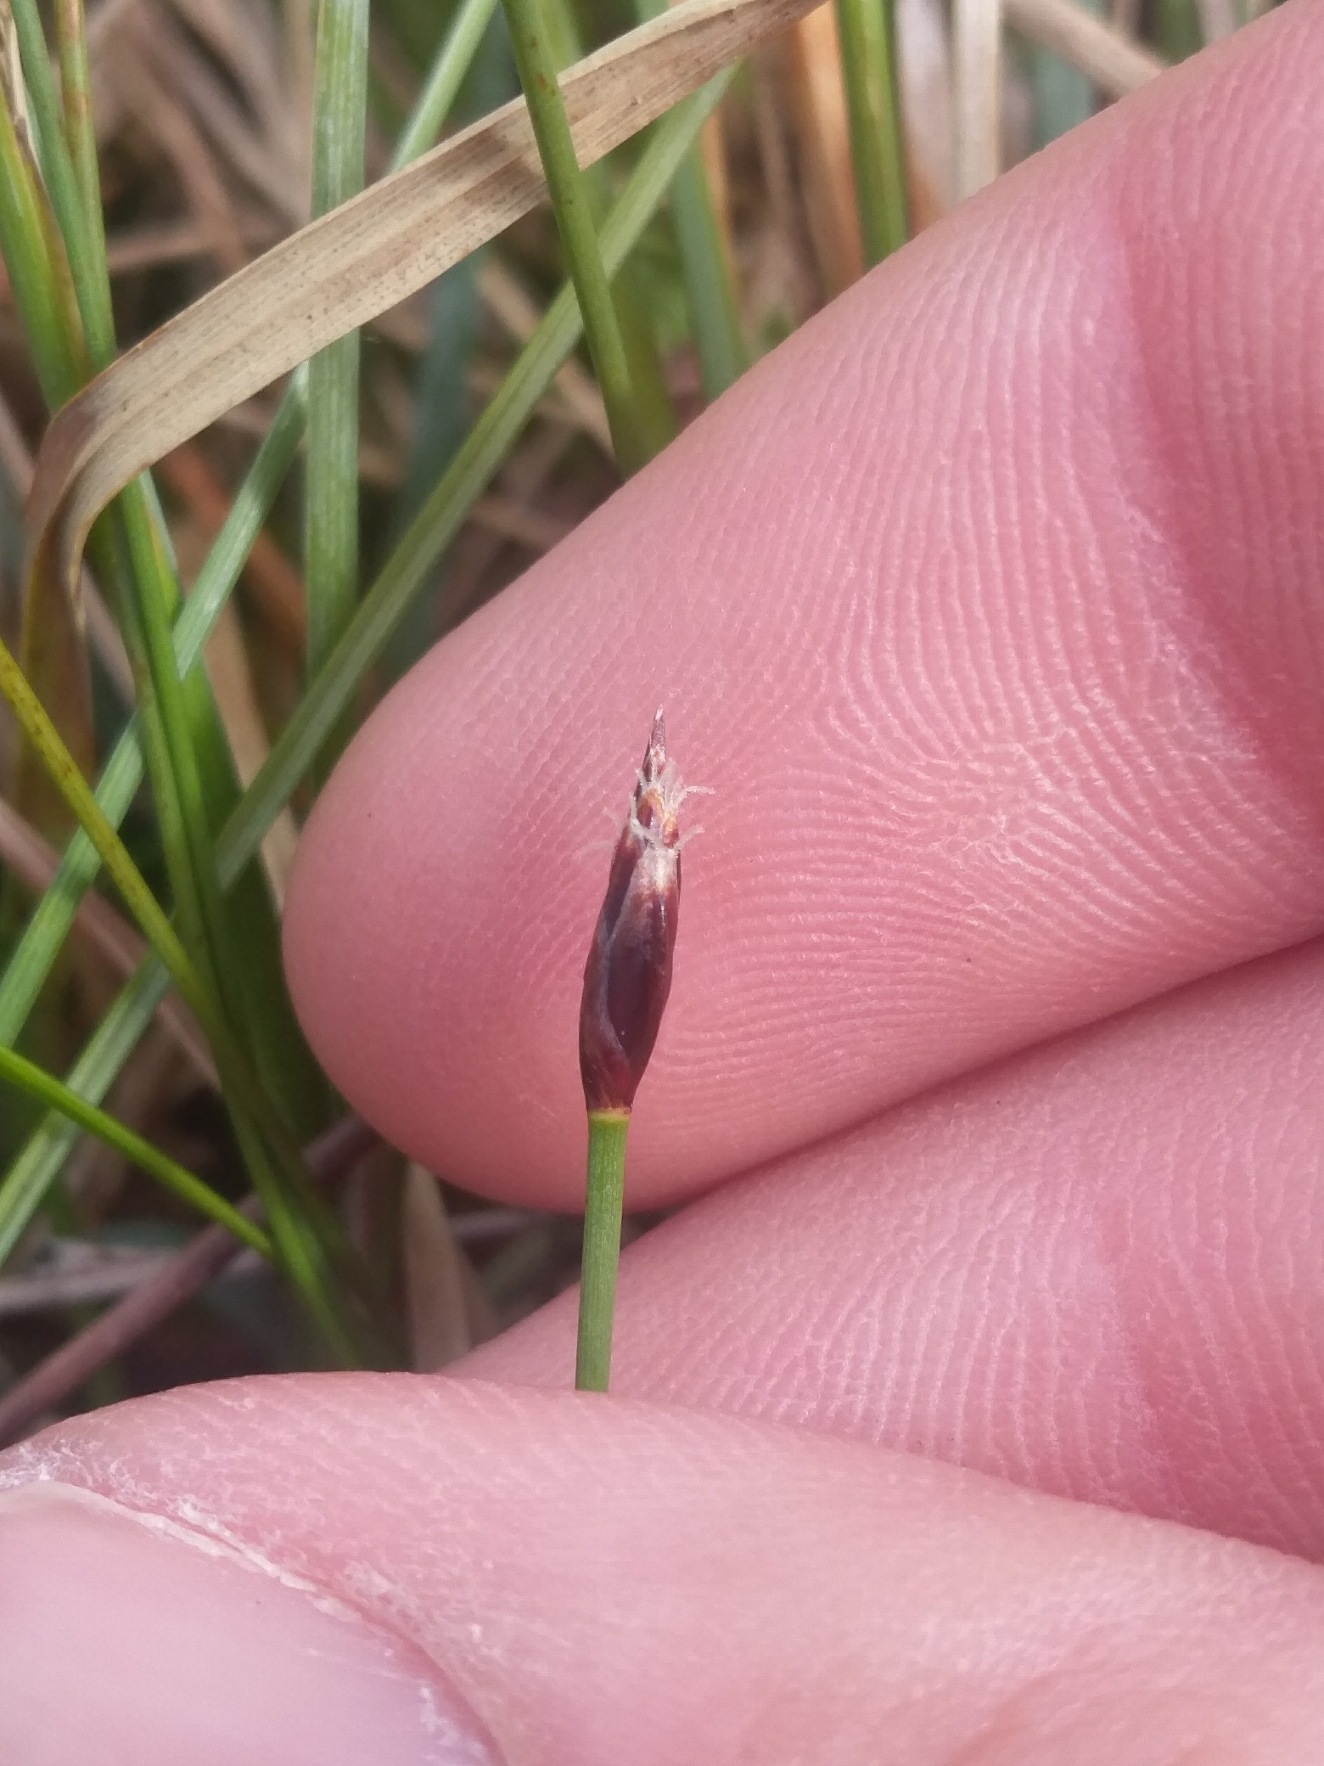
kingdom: Plantae
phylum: Tracheophyta
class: Liliopsida
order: Poales
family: Cyperaceae
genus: Eleocharis
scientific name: Eleocharis quinqueflora
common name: Fåblomstret kogleaks
